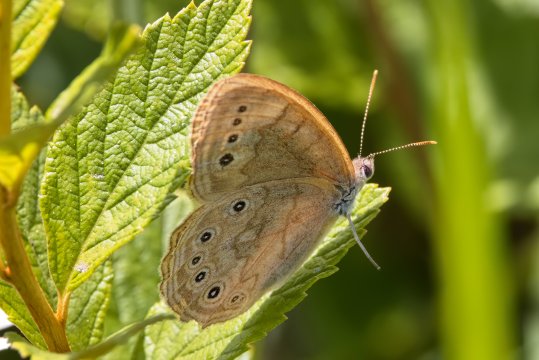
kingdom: Animalia
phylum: Arthropoda
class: Insecta
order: Lepidoptera
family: Nymphalidae
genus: Lethe
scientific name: Lethe eurydice
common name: Eyed Brown
